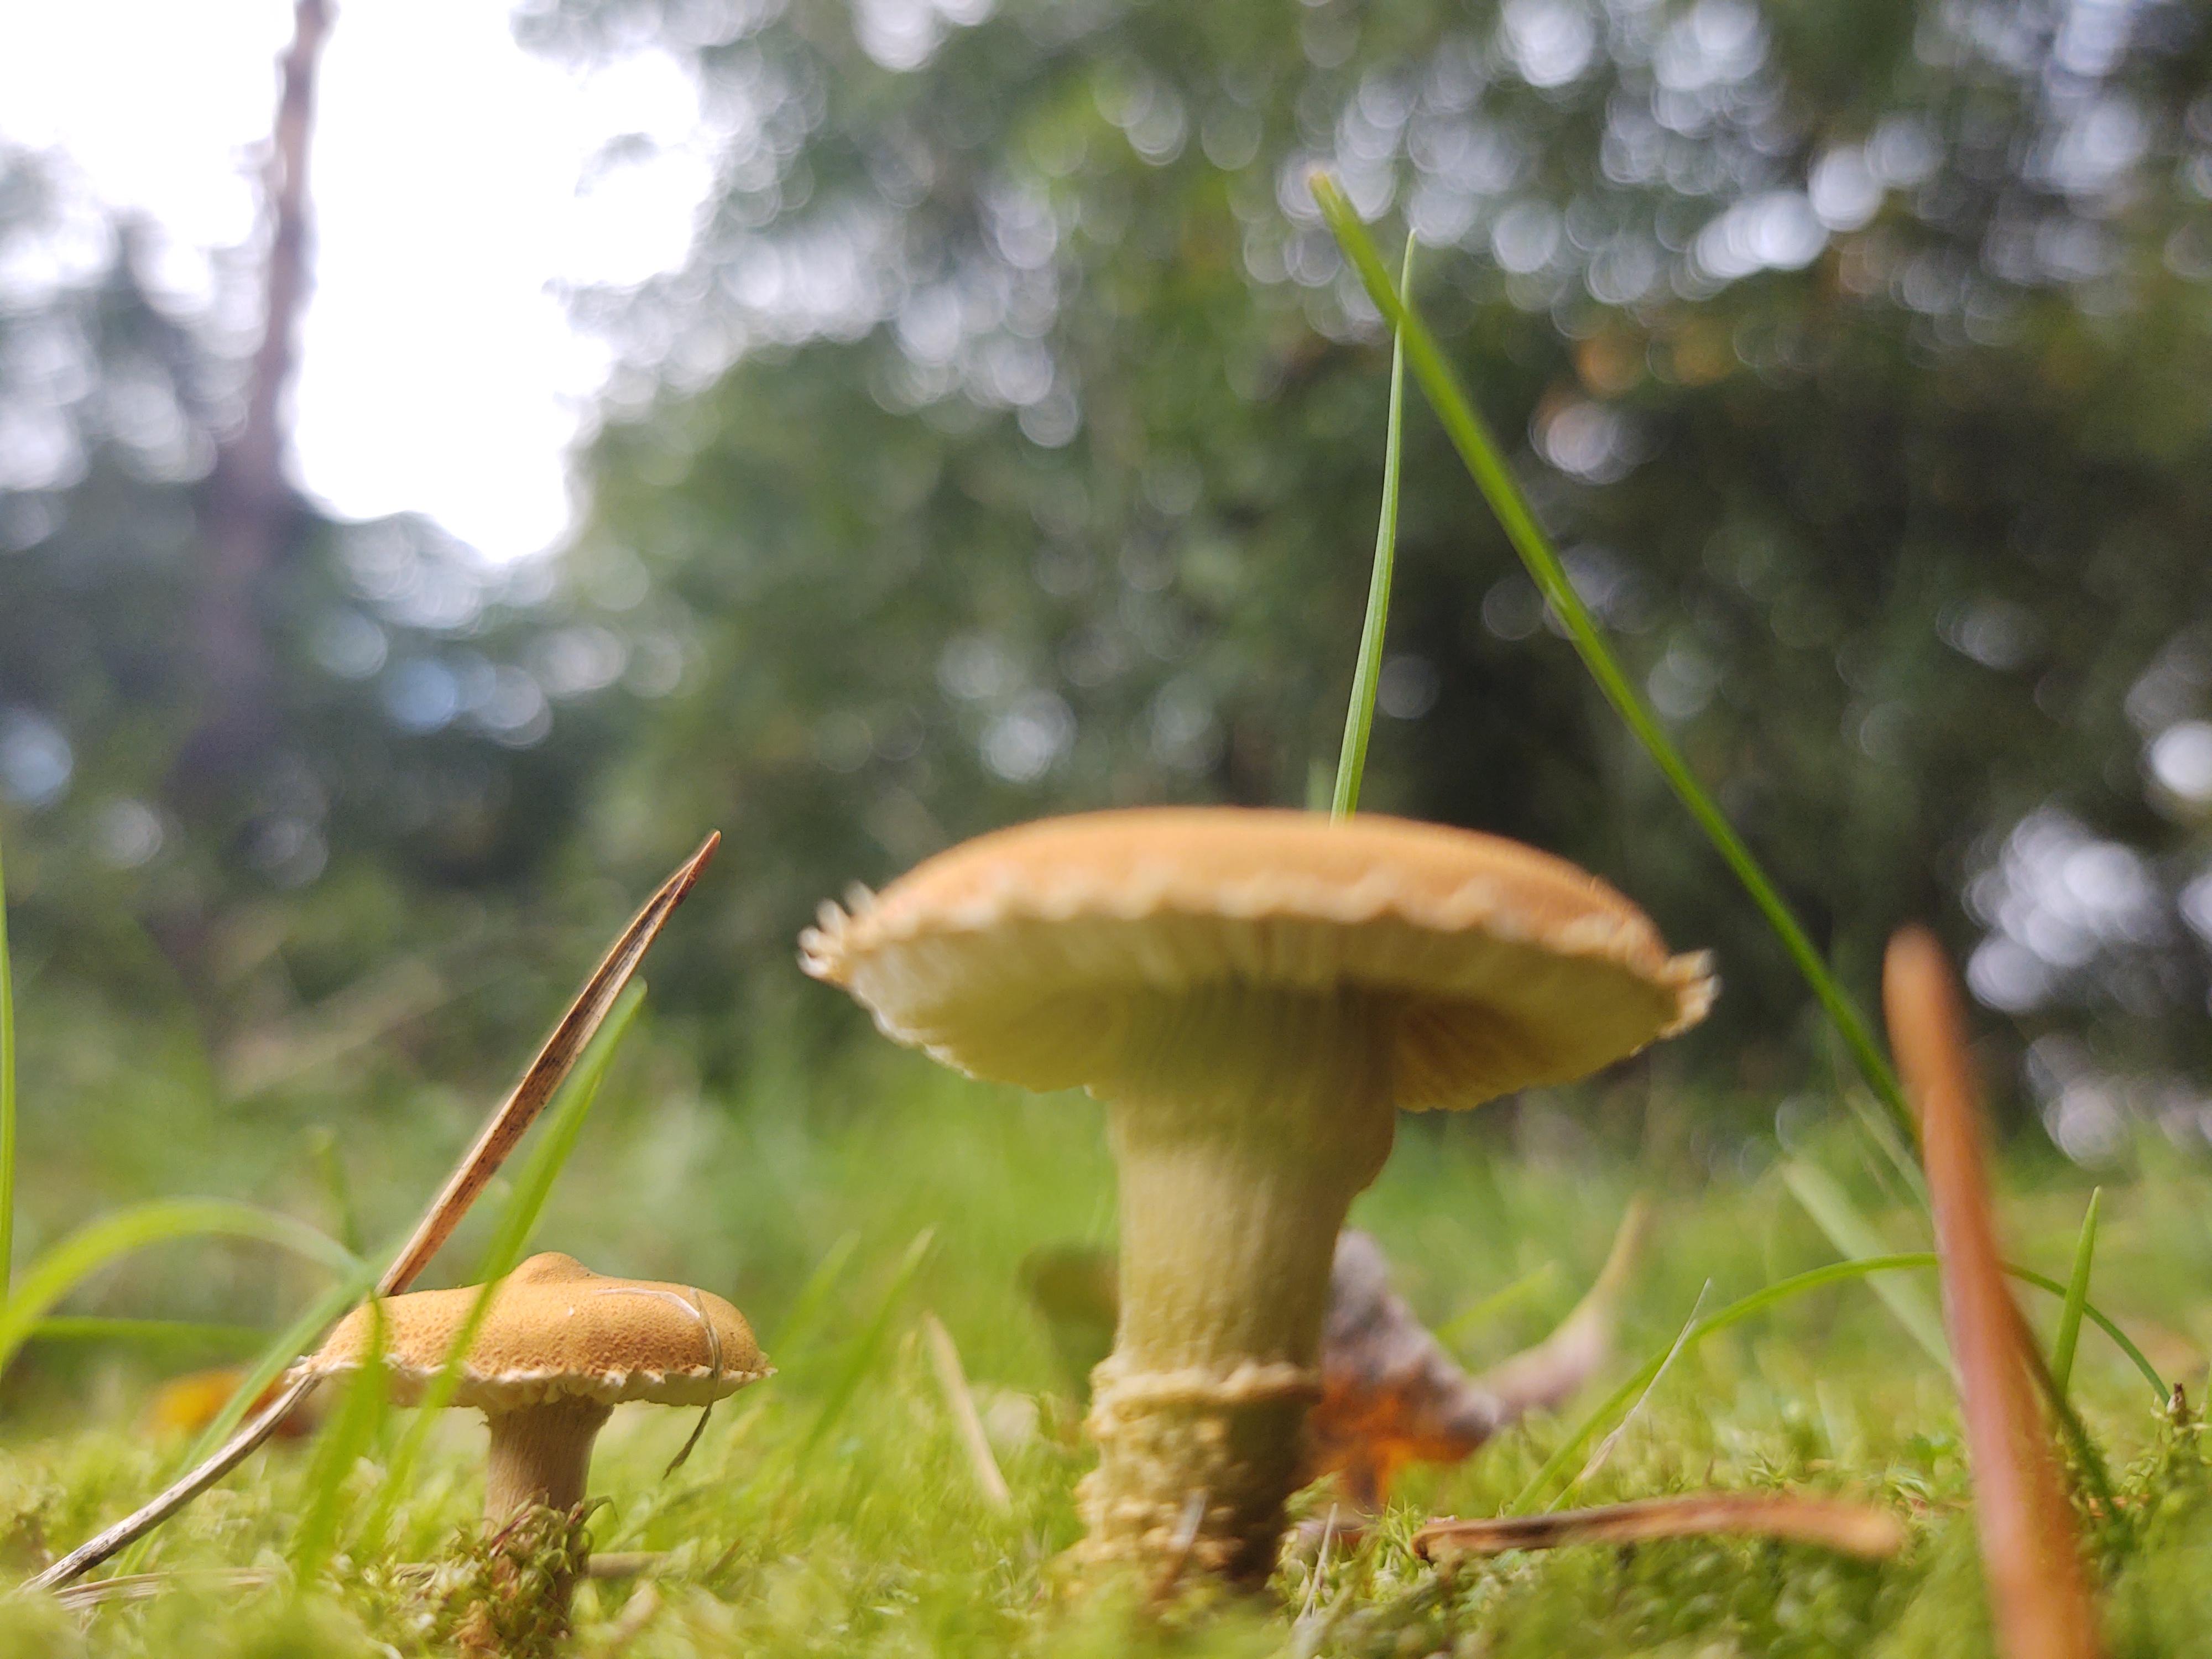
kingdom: Fungi
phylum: Basidiomycota
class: Agaricomycetes
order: Agaricales
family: Tricholomataceae
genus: Cystoderma
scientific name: Cystoderma amianthinum
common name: okkergul grynhat
